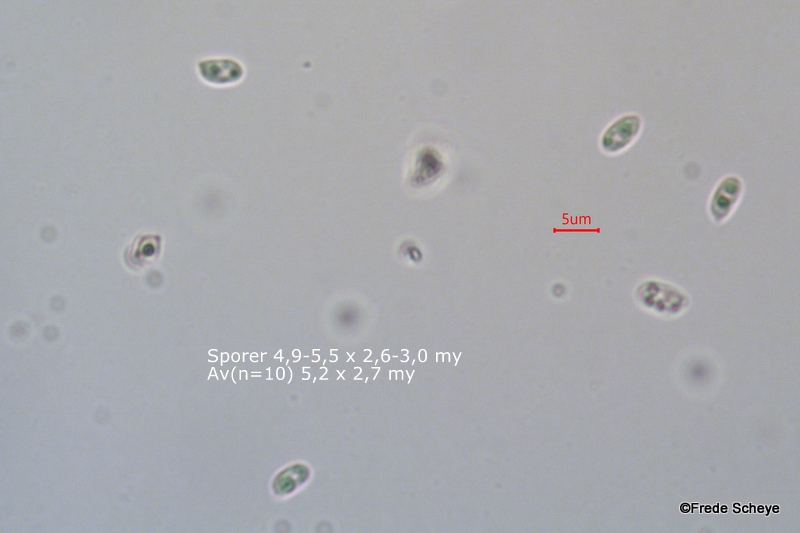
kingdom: Fungi
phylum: Basidiomycota
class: Agaricomycetes
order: Polyporales
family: Meruliaceae
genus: Phlebiodontia
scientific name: Phlebiodontia subochracea
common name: svovl-åresvamp
